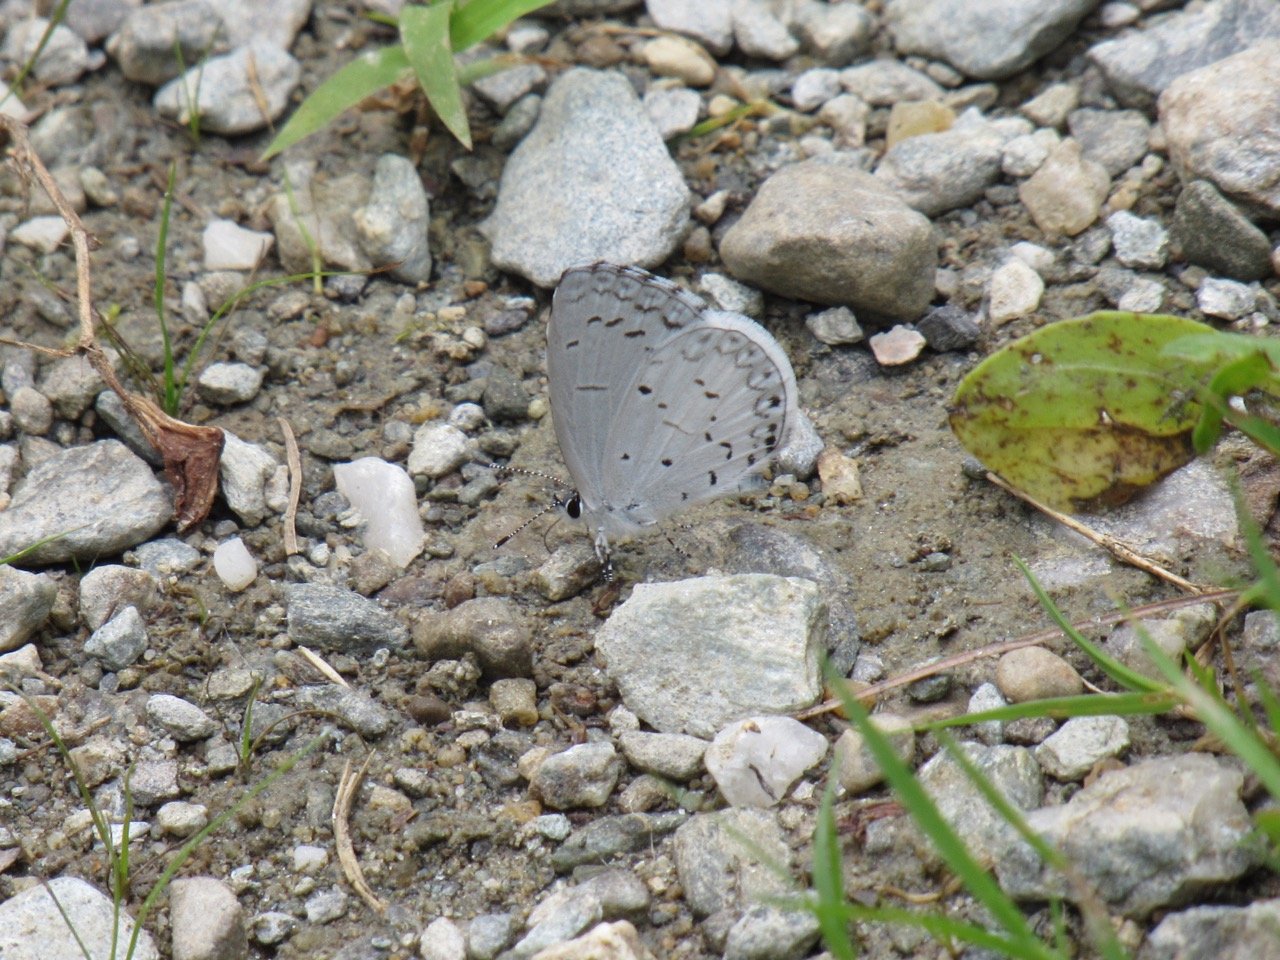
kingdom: Animalia
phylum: Arthropoda
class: Insecta
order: Lepidoptera
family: Lycaenidae
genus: Celastrina
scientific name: Celastrina
